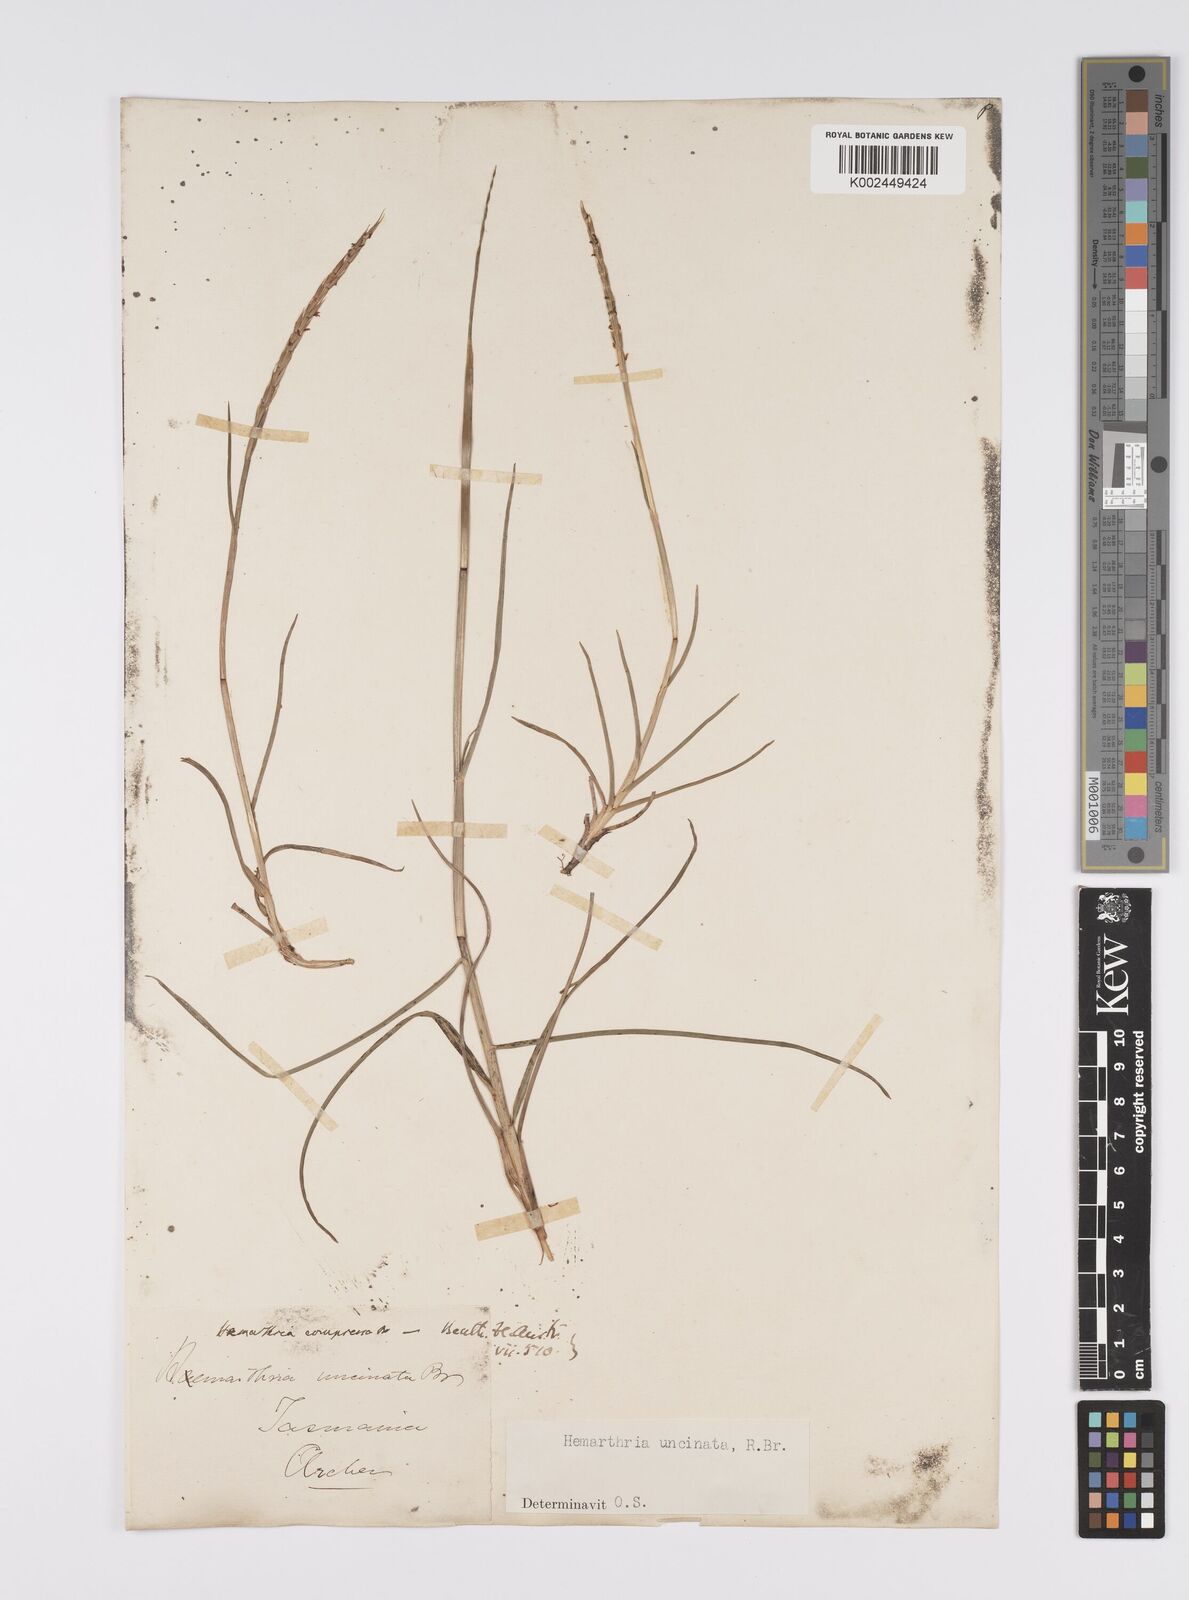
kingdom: Plantae
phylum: Tracheophyta
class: Liliopsida
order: Poales
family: Poaceae
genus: Hemarthria
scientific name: Hemarthria uncinata
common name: Matgrass
